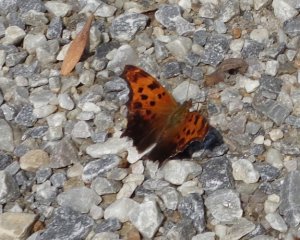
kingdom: Animalia
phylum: Arthropoda
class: Insecta
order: Lepidoptera
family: Nymphalidae
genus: Polygonia
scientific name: Polygonia comma
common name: Eastern Comma
